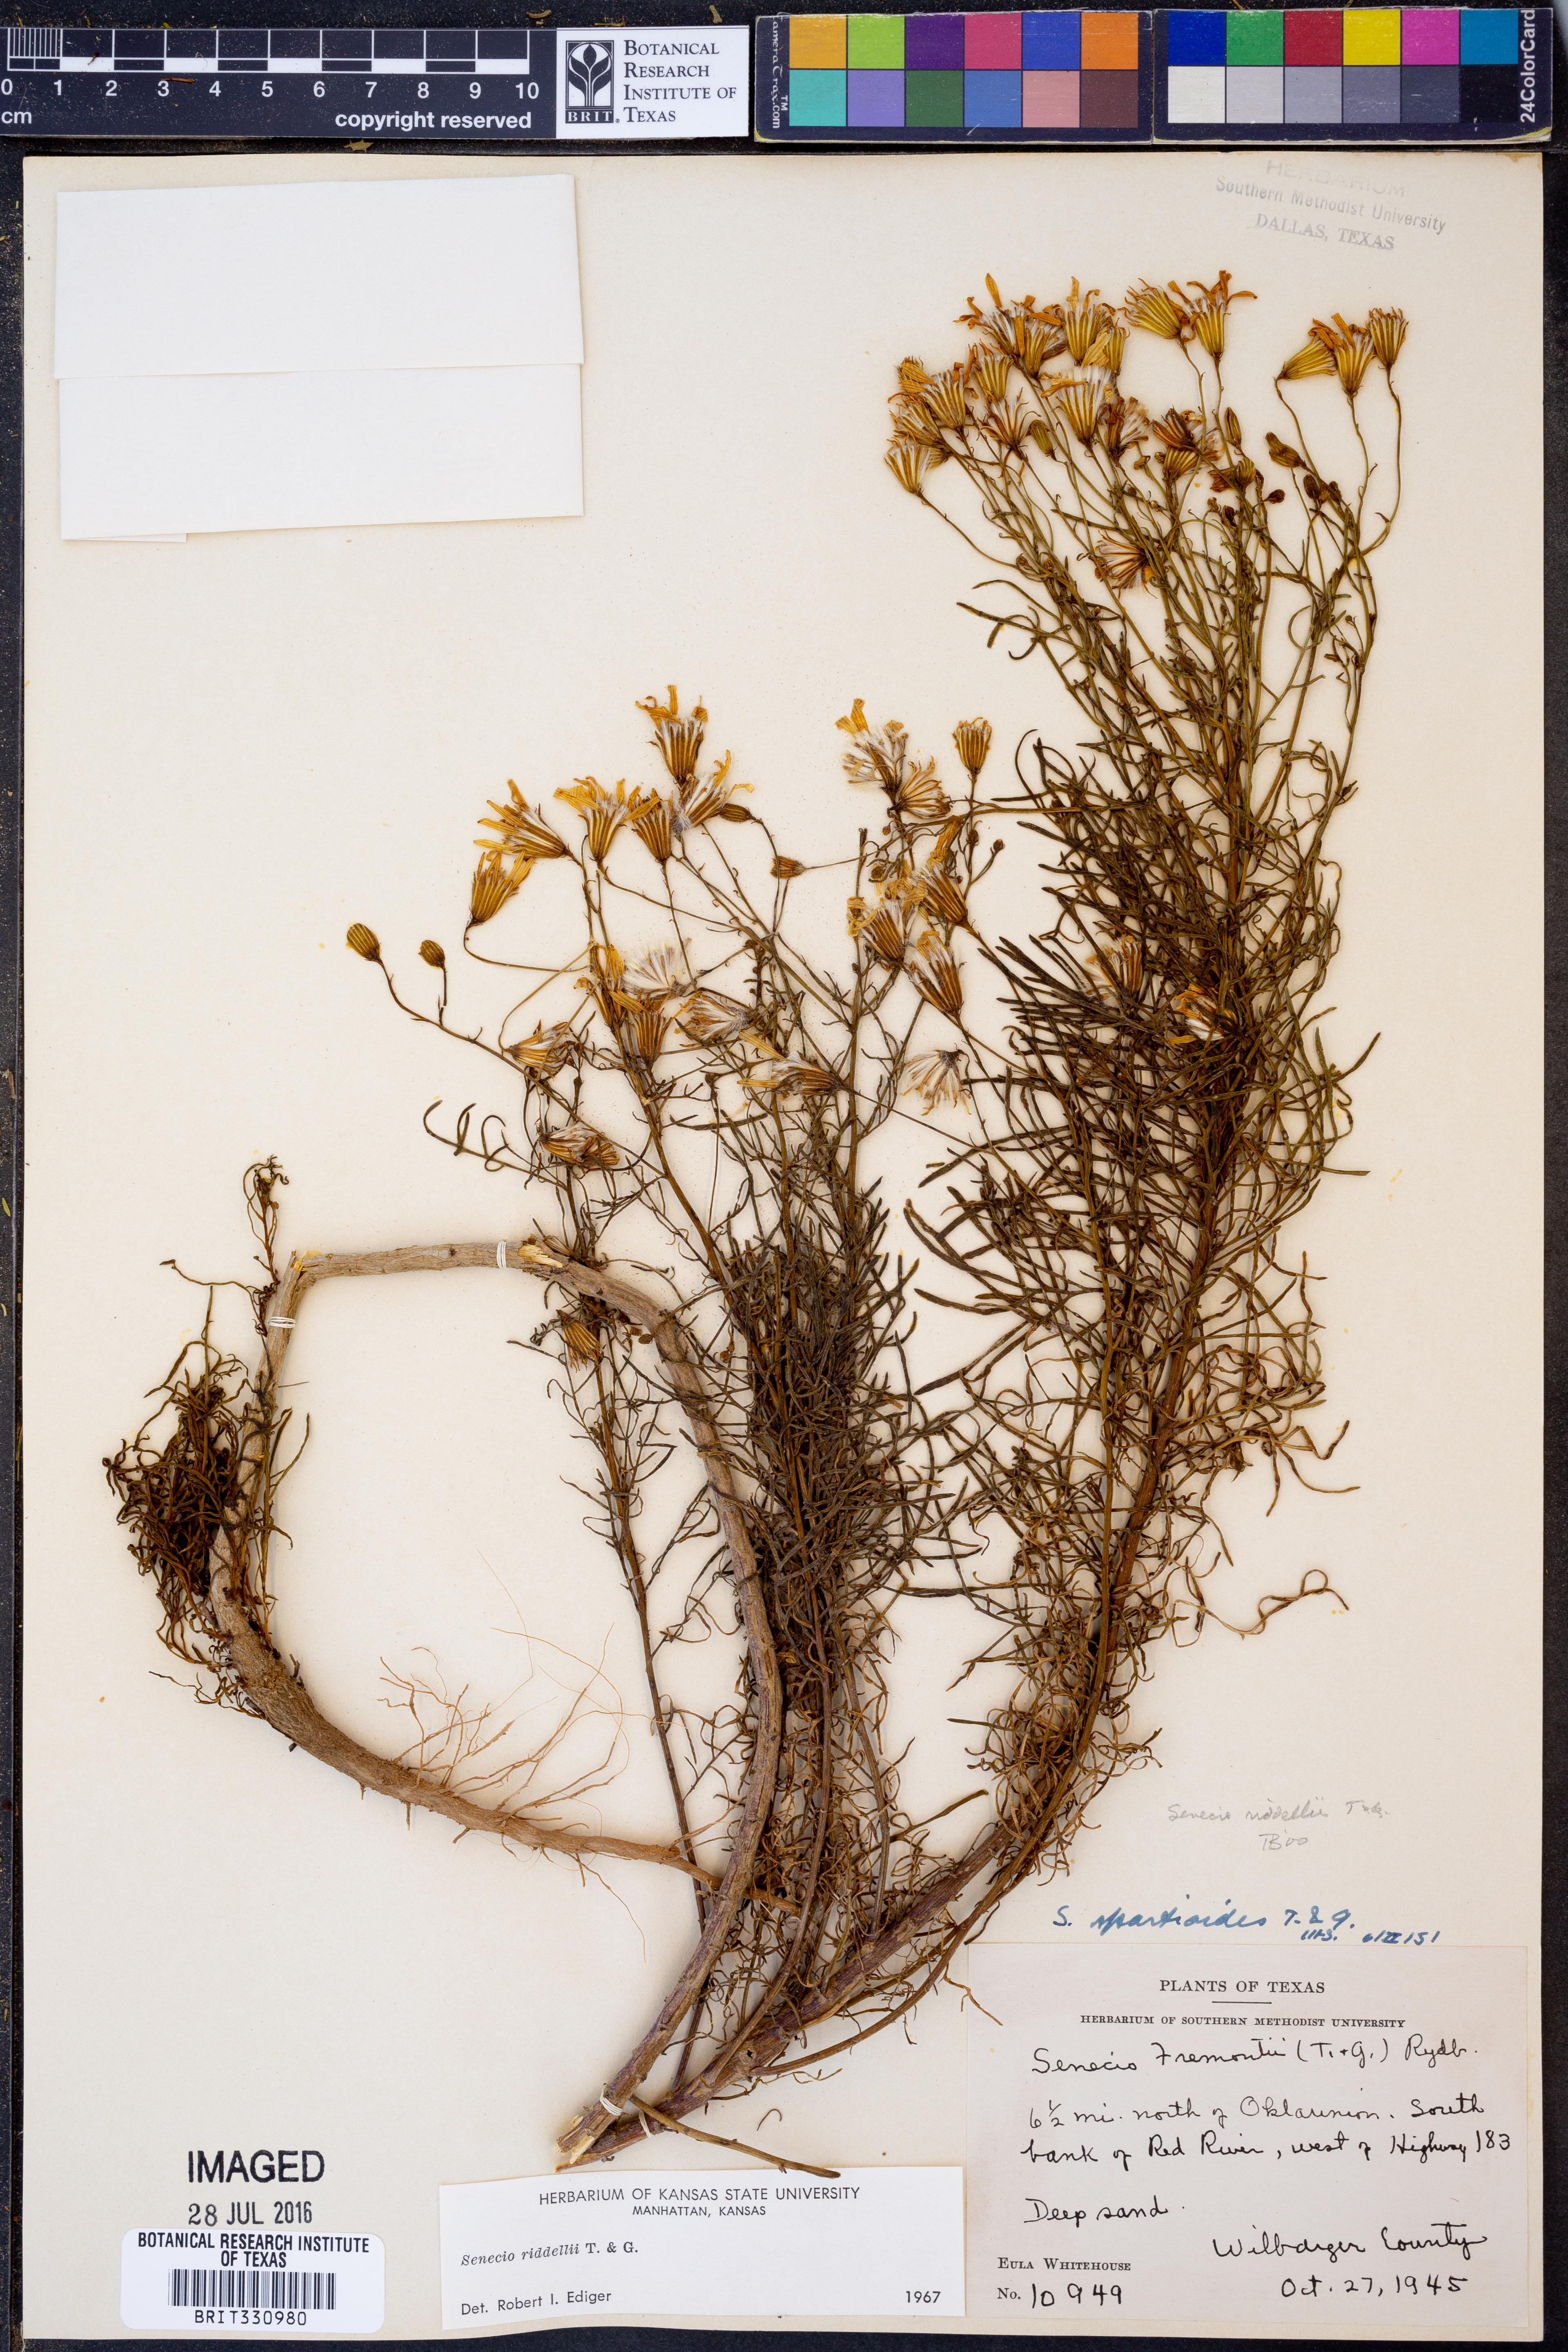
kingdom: Plantae
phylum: Tracheophyta
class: Magnoliopsida
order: Asterales
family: Asteraceae
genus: Senecio
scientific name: Senecio riddellii
